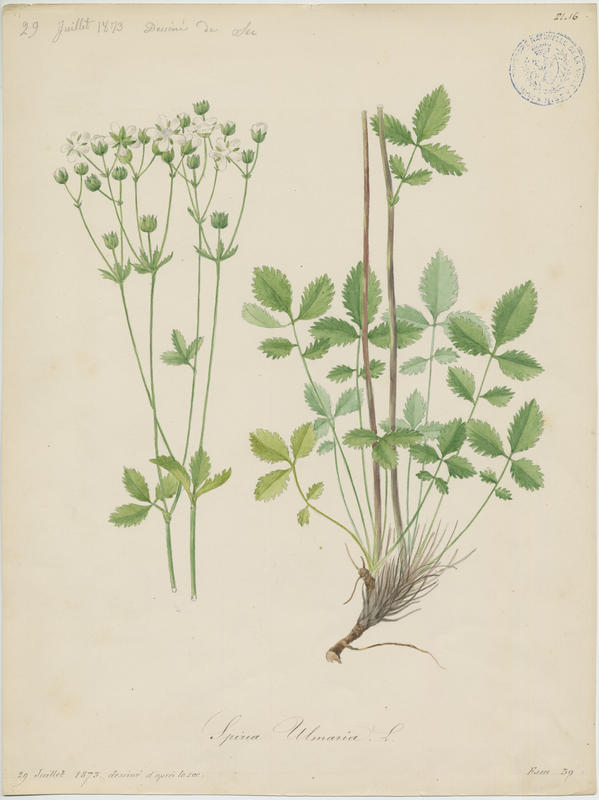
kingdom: Plantae
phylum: Tracheophyta
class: Magnoliopsida
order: Rosales
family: Rosaceae
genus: Filipendula
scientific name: Filipendula ulmaria
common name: Meadowsweet
